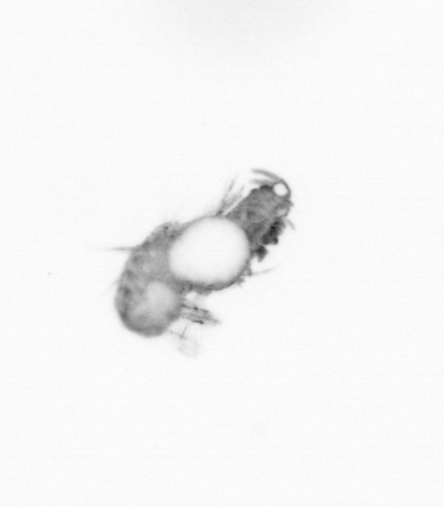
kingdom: Animalia
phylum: Annelida
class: Polychaeta
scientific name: Polychaeta
